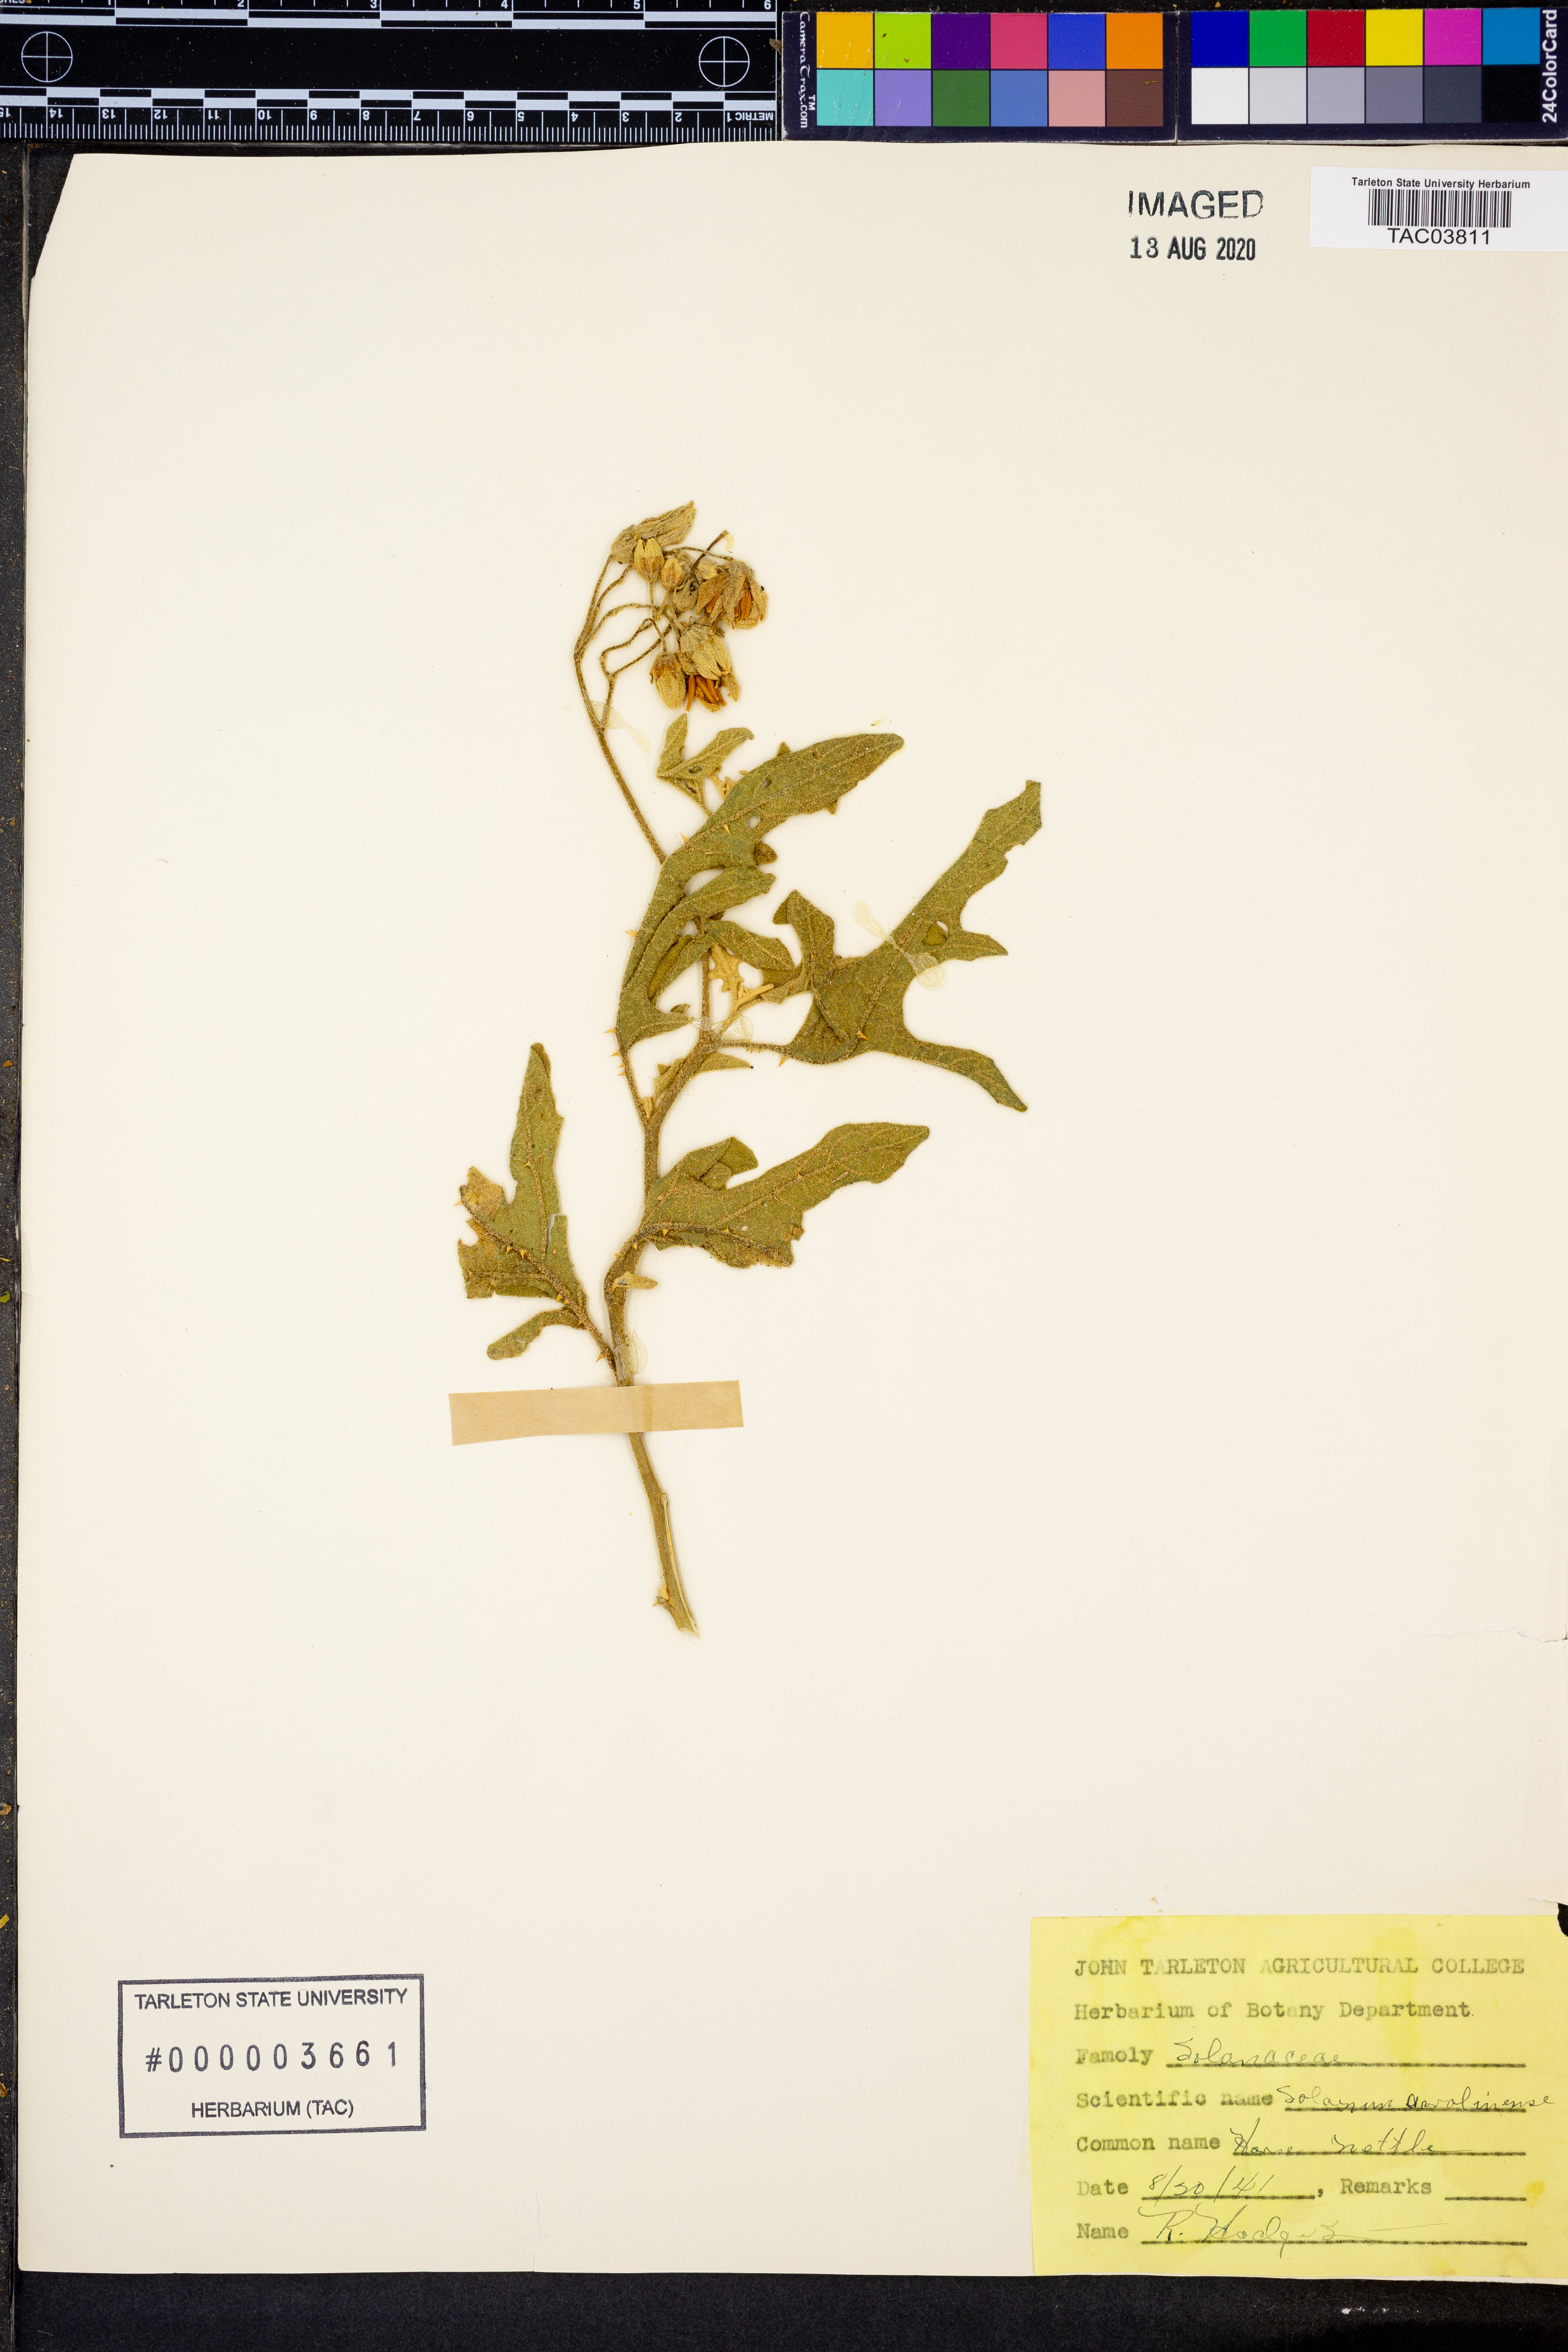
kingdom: Plantae
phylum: Tracheophyta
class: Magnoliopsida
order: Solanales
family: Solanaceae
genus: Solanum
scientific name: Solanum carolinense
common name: Horse-nettle
